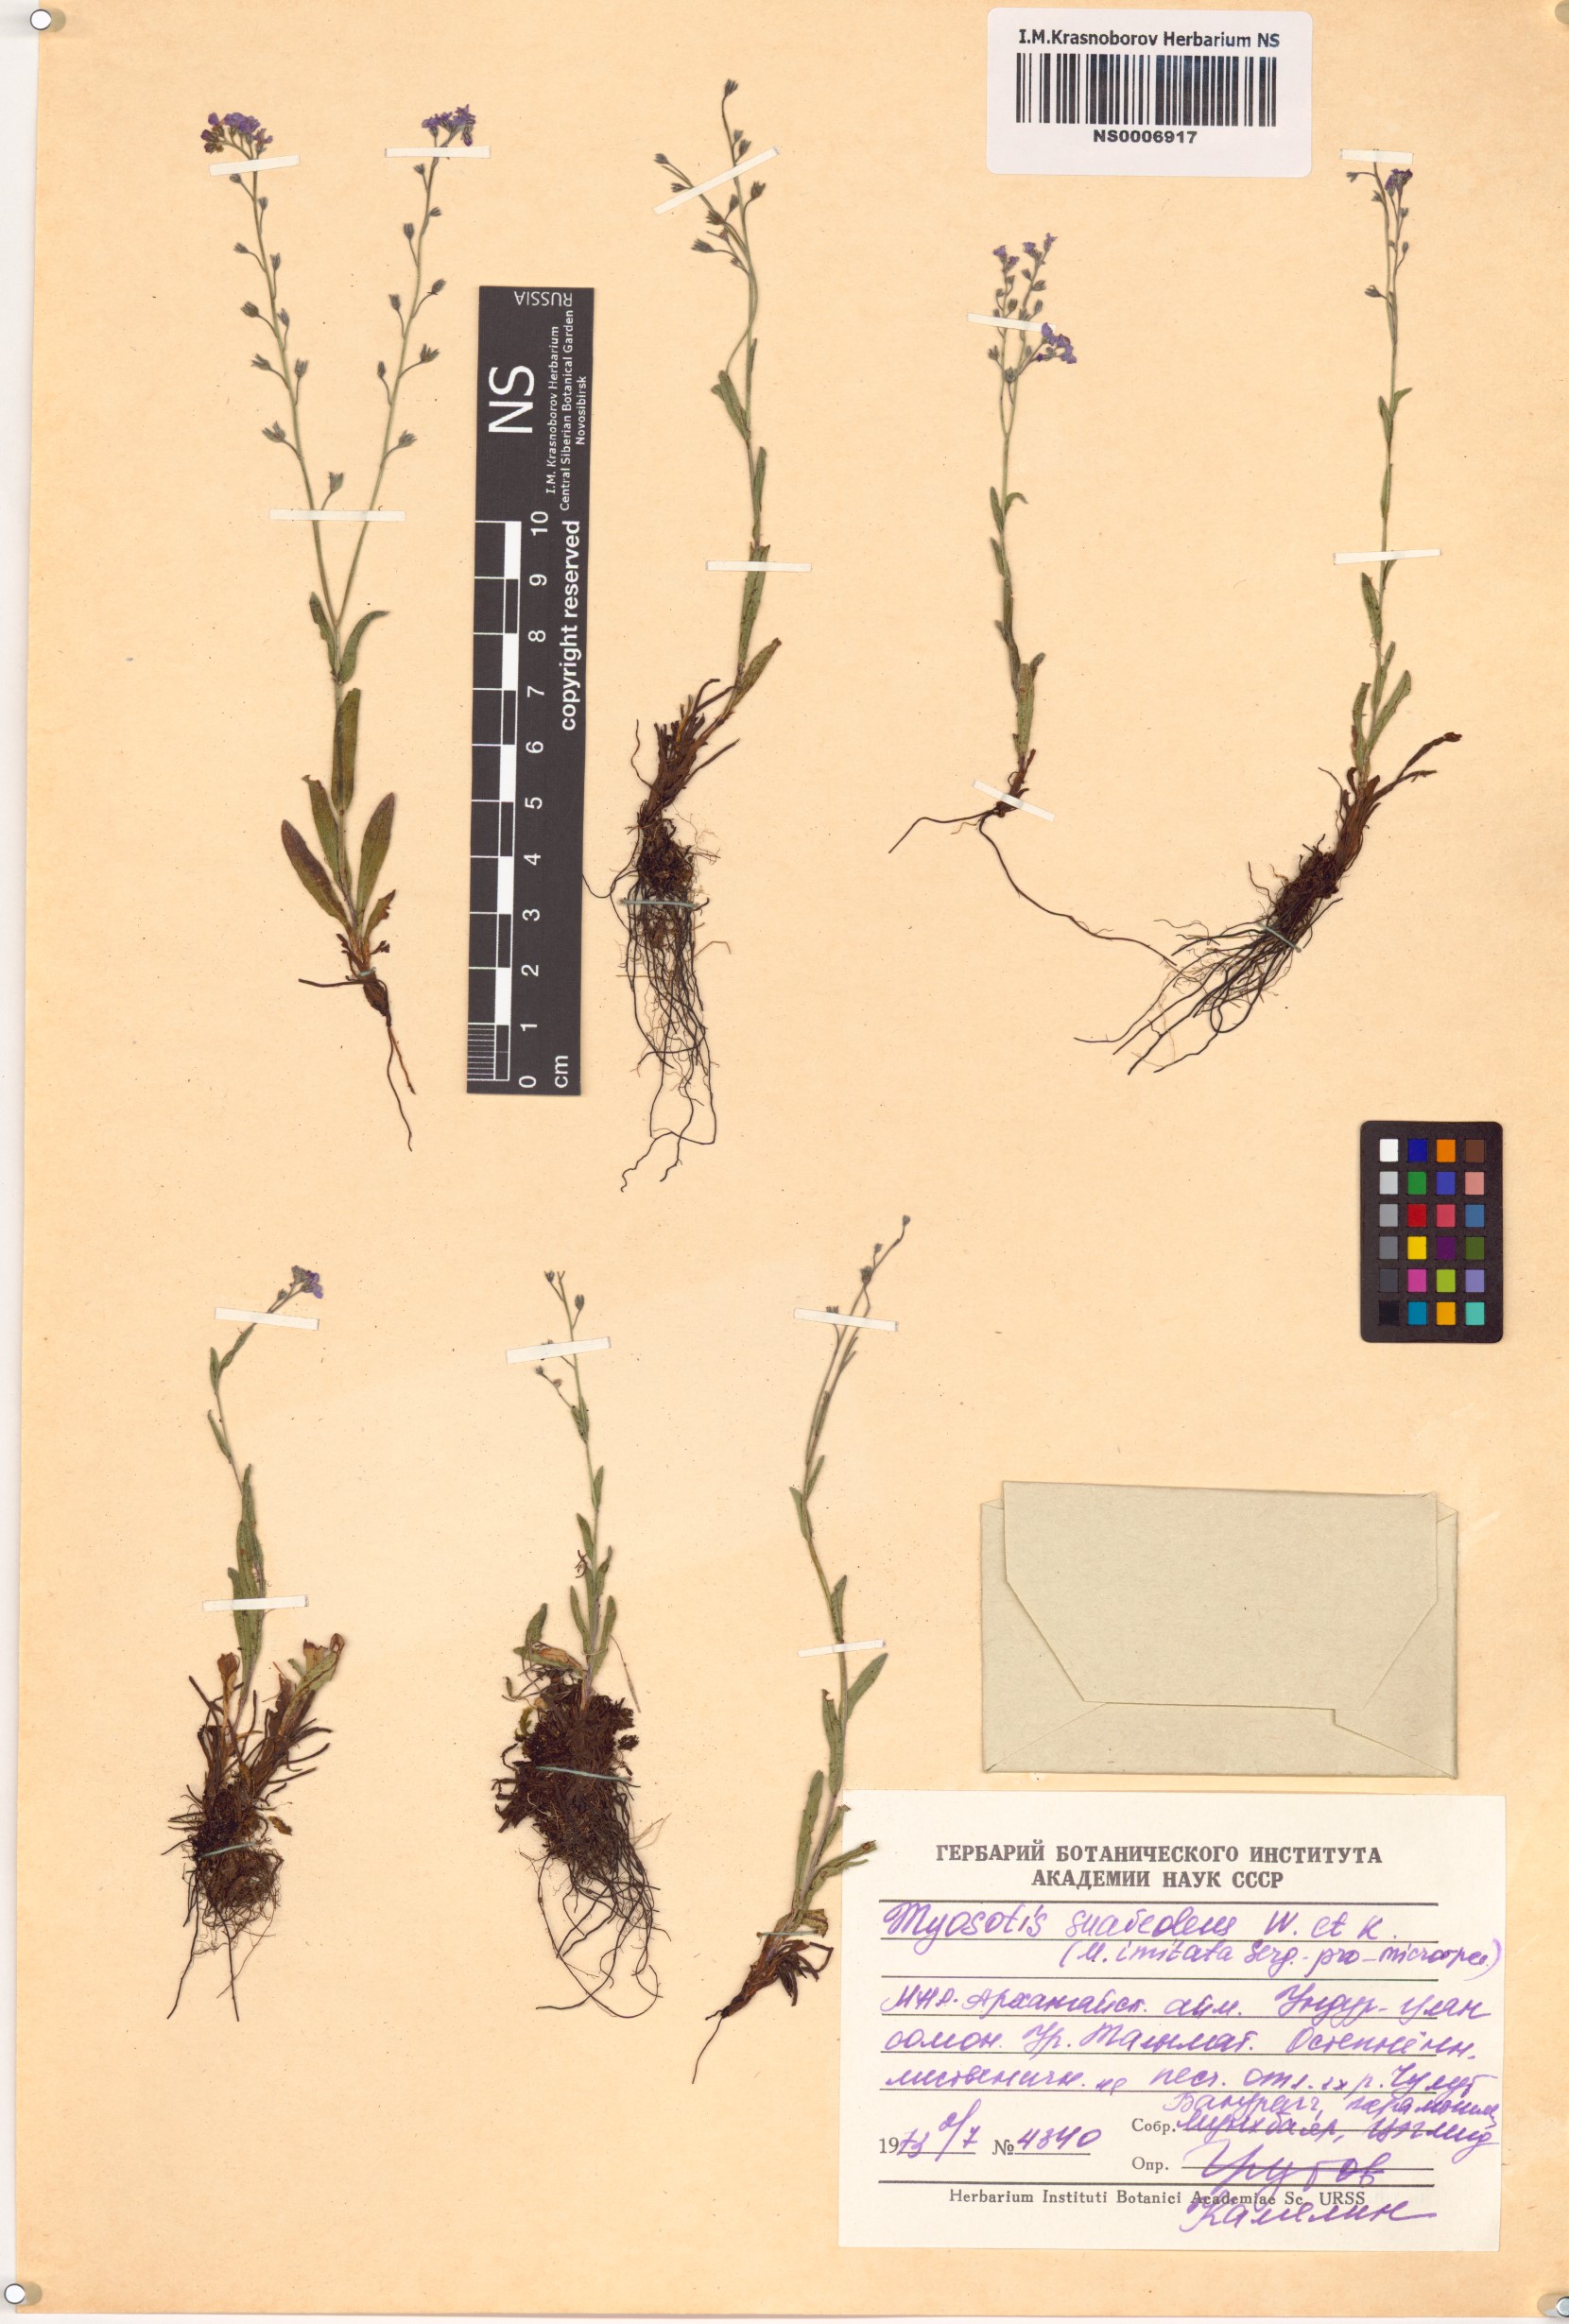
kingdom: Plantae
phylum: Tracheophyta
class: Magnoliopsida
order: Boraginales
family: Boraginaceae
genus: Myosotis
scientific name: Myosotis alpestris
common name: Alpine forget-me-not
